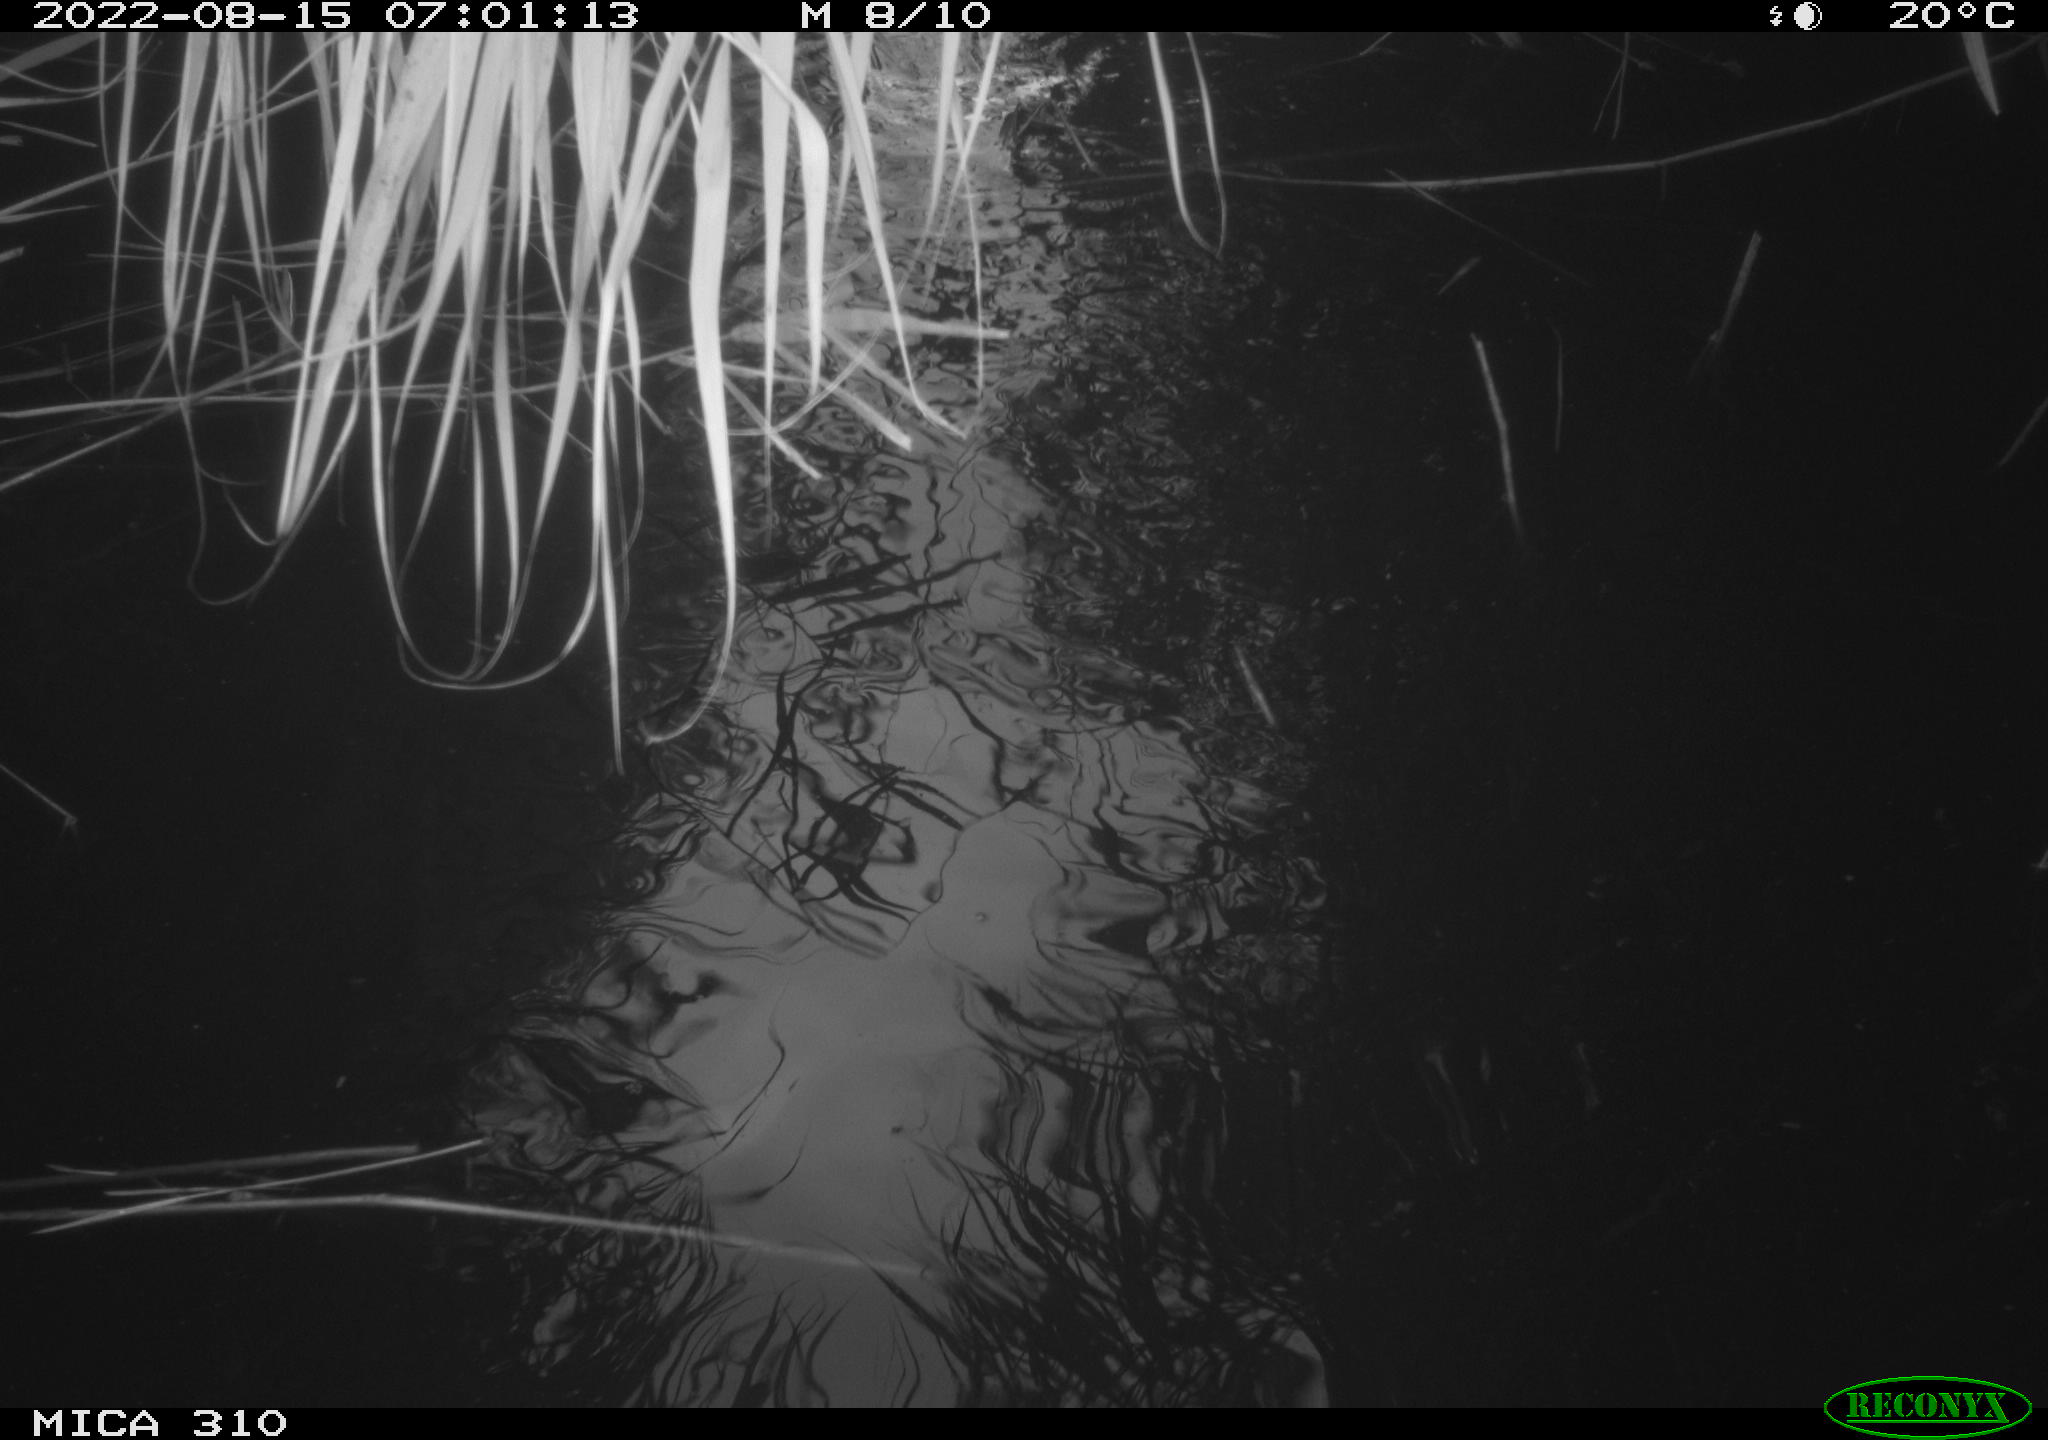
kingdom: Animalia
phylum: Chordata
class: Aves
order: Anseriformes
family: Anatidae
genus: Anas
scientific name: Anas platyrhynchos
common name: Mallard
